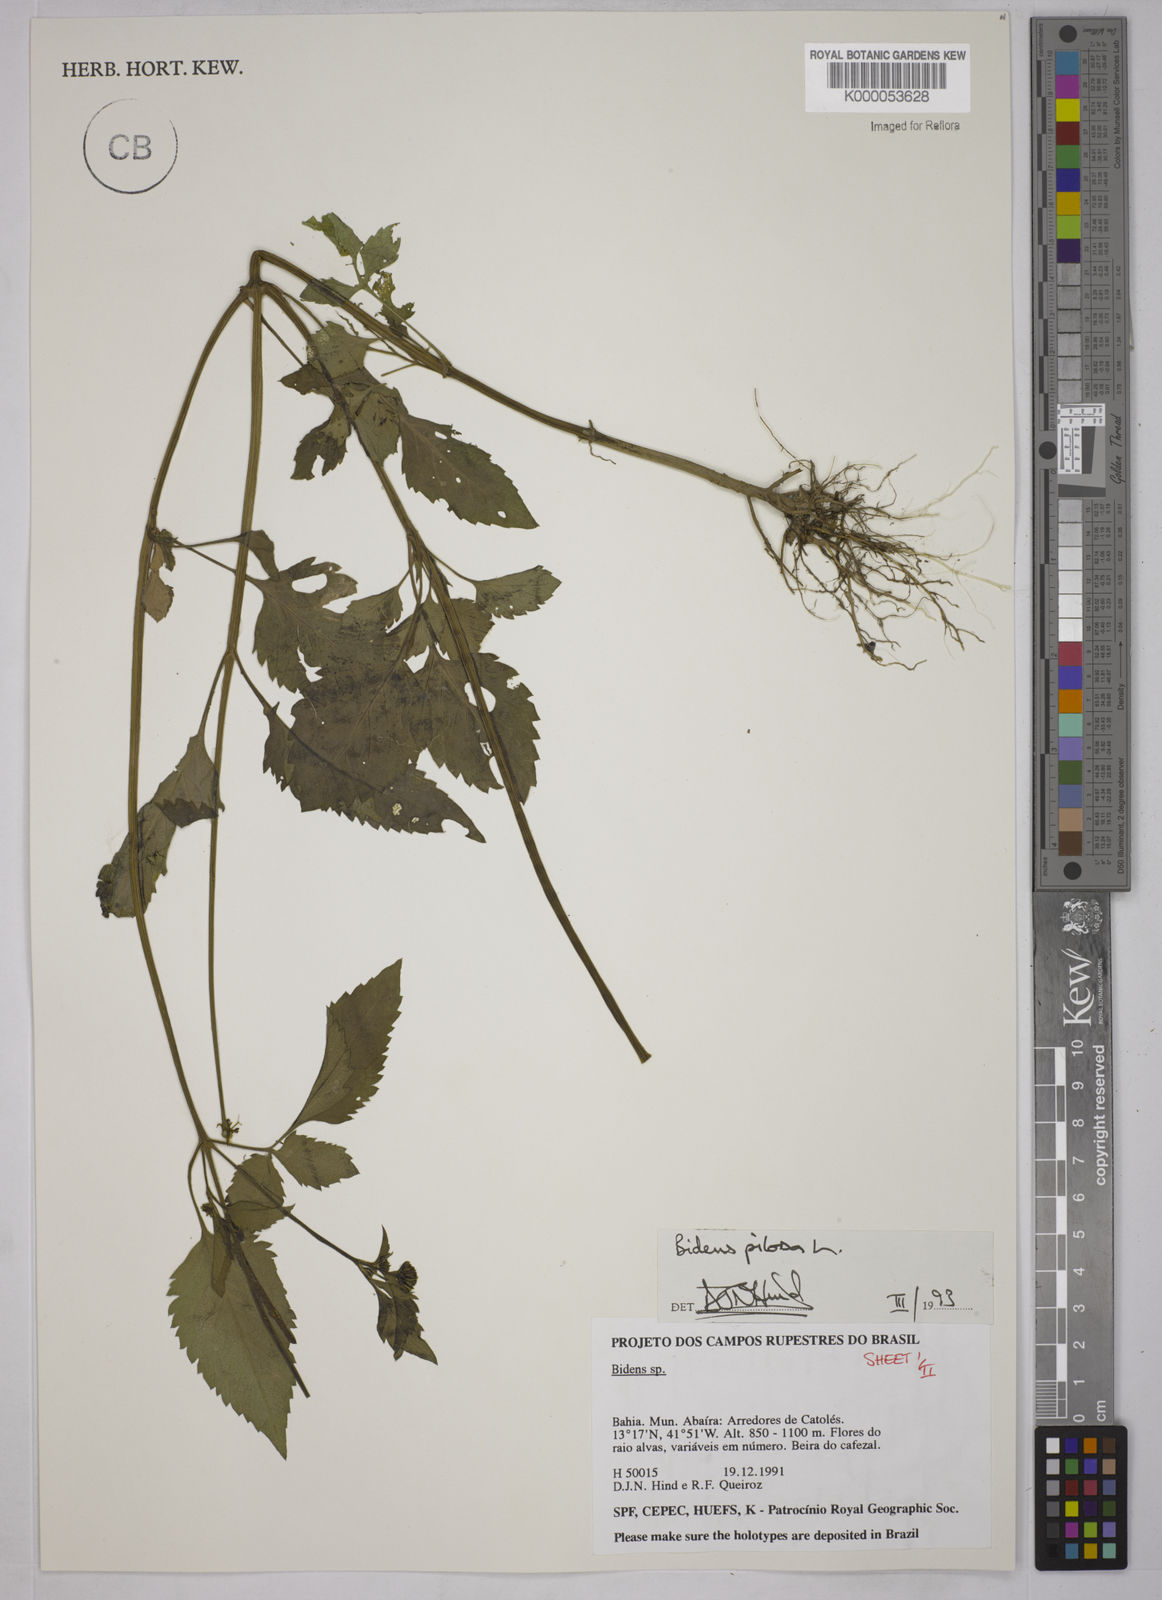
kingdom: Plantae
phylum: Tracheophyta
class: Magnoliopsida
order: Asterales
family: Asteraceae
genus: Bidens
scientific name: Bidens pilosa
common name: Black-jack
